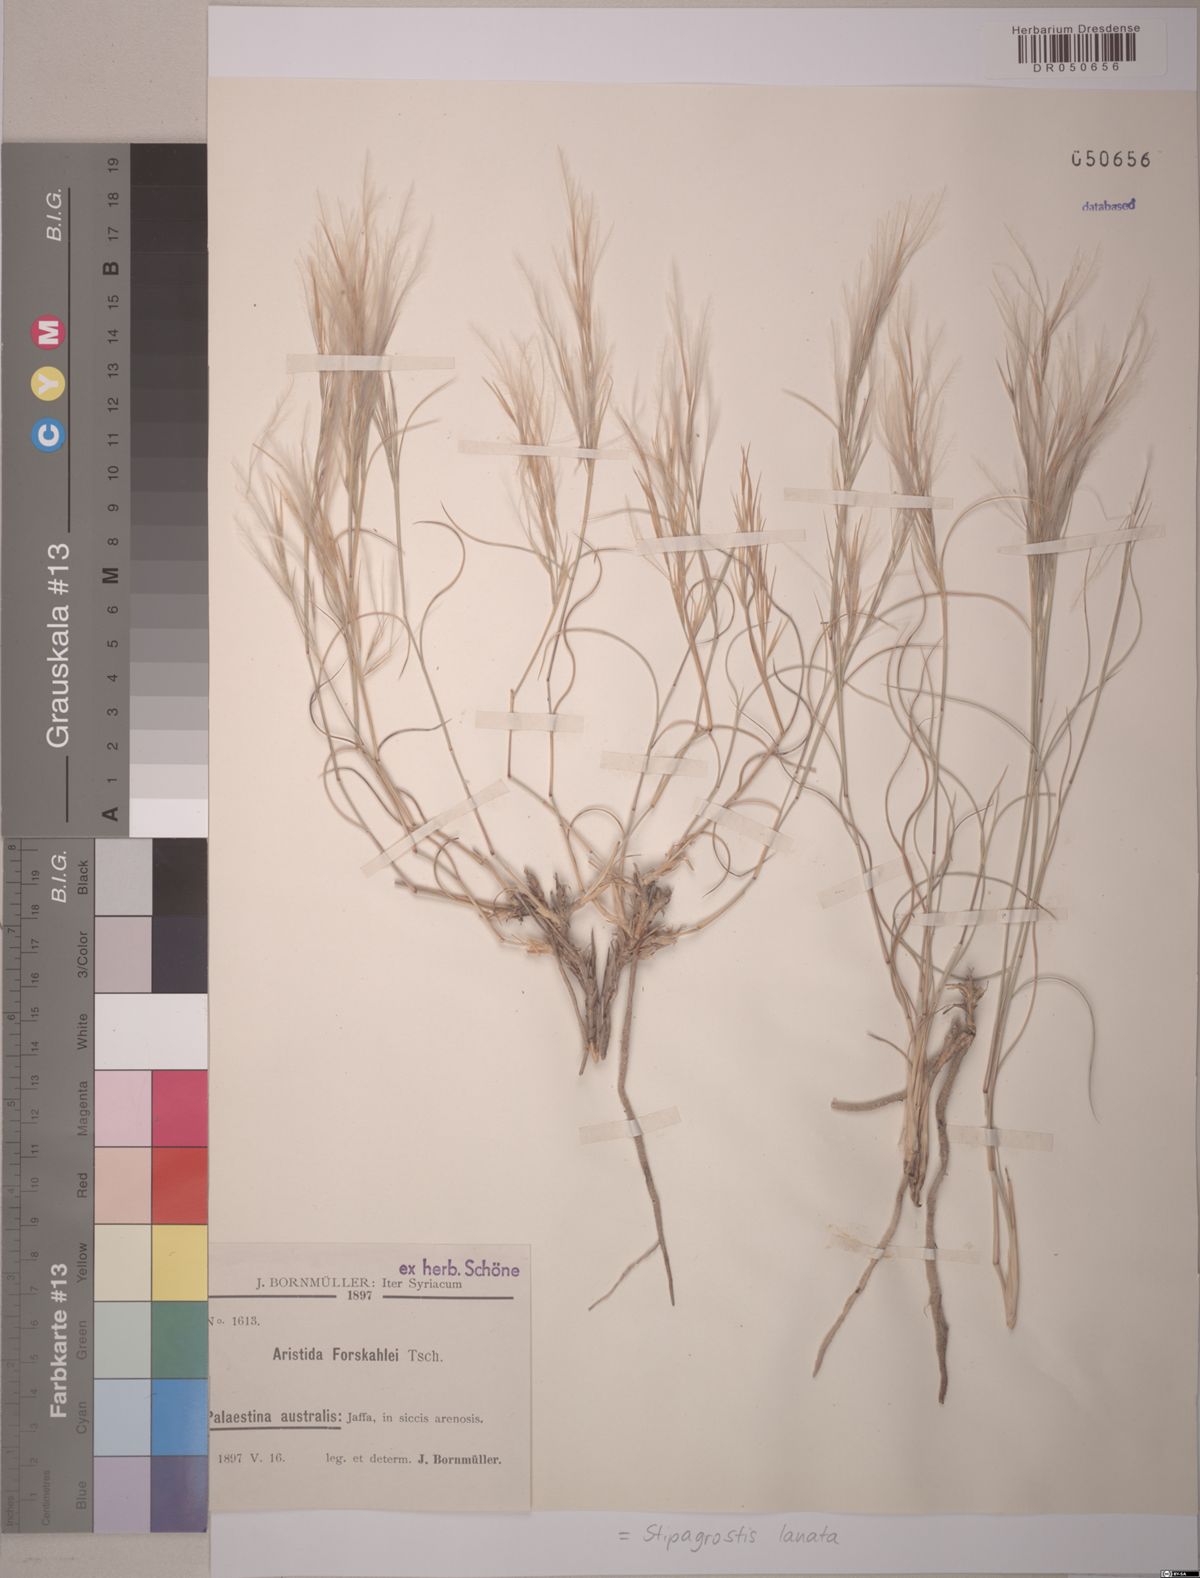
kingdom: Plantae
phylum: Tracheophyta
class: Liliopsida
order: Poales
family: Poaceae
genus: Stipagrostis
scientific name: Stipagrostis lanata
